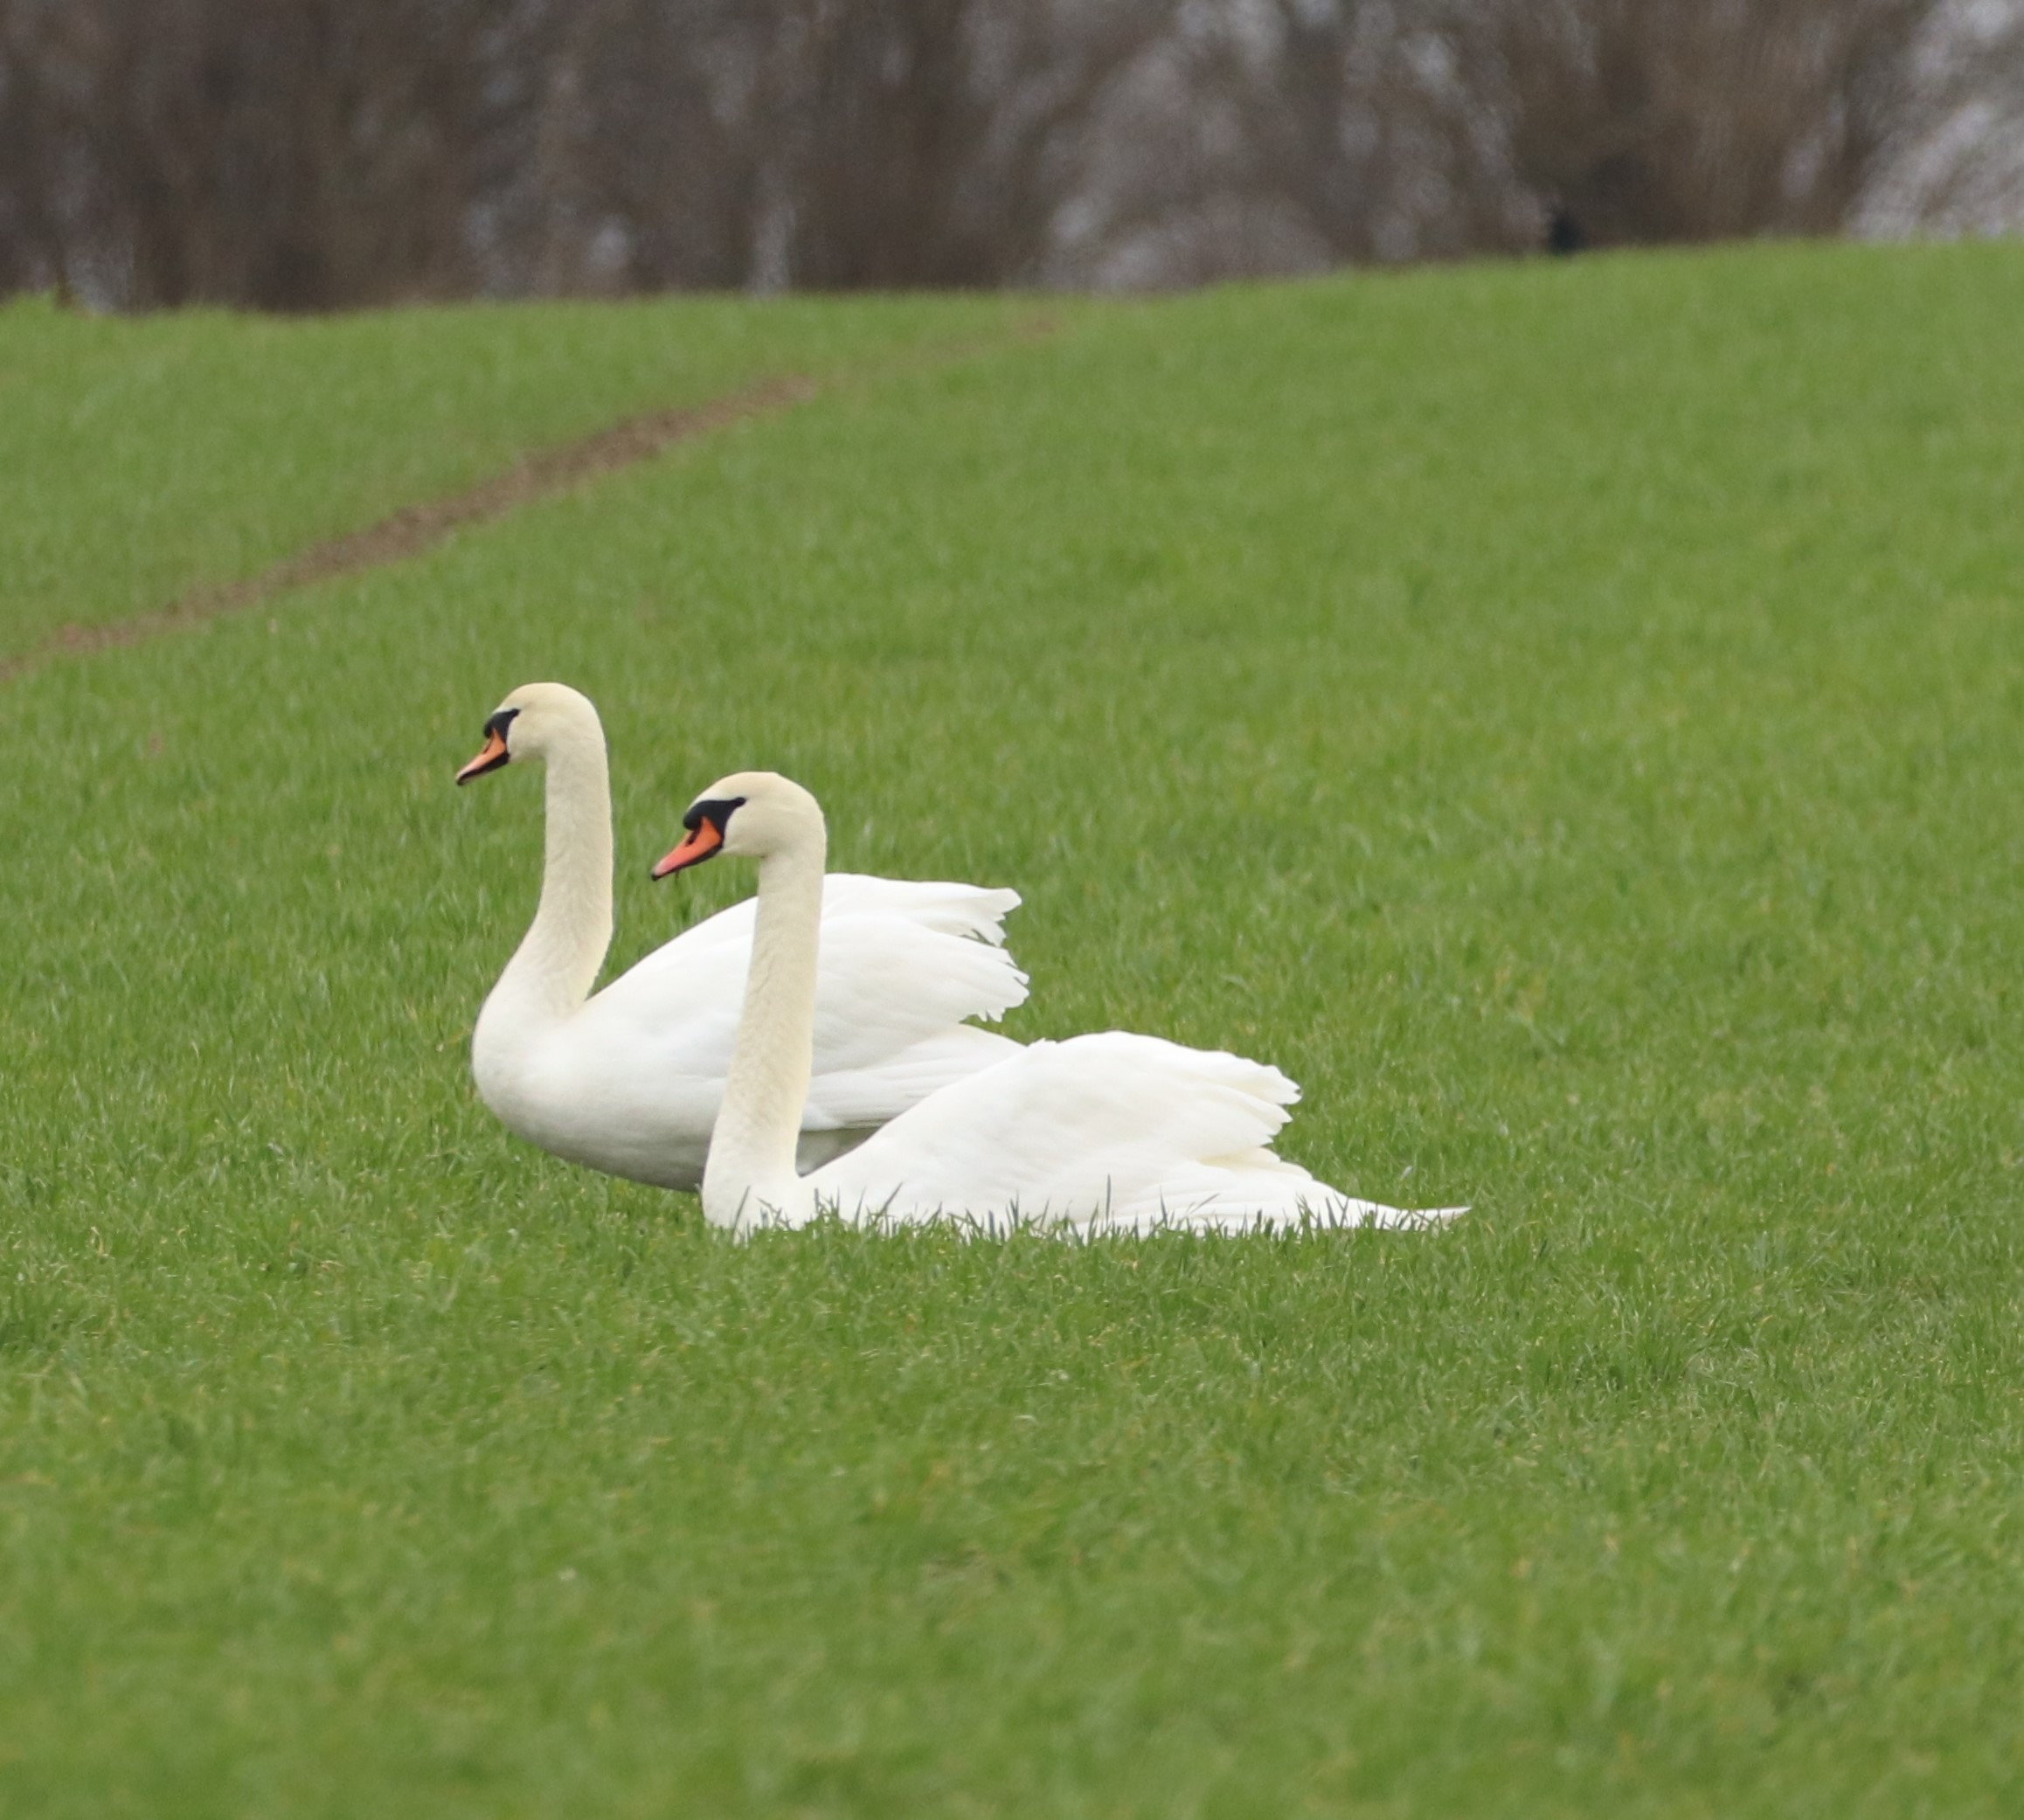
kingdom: Animalia
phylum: Chordata
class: Aves
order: Anseriformes
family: Anatidae
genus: Cygnus
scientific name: Cygnus olor
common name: Knopsvane
